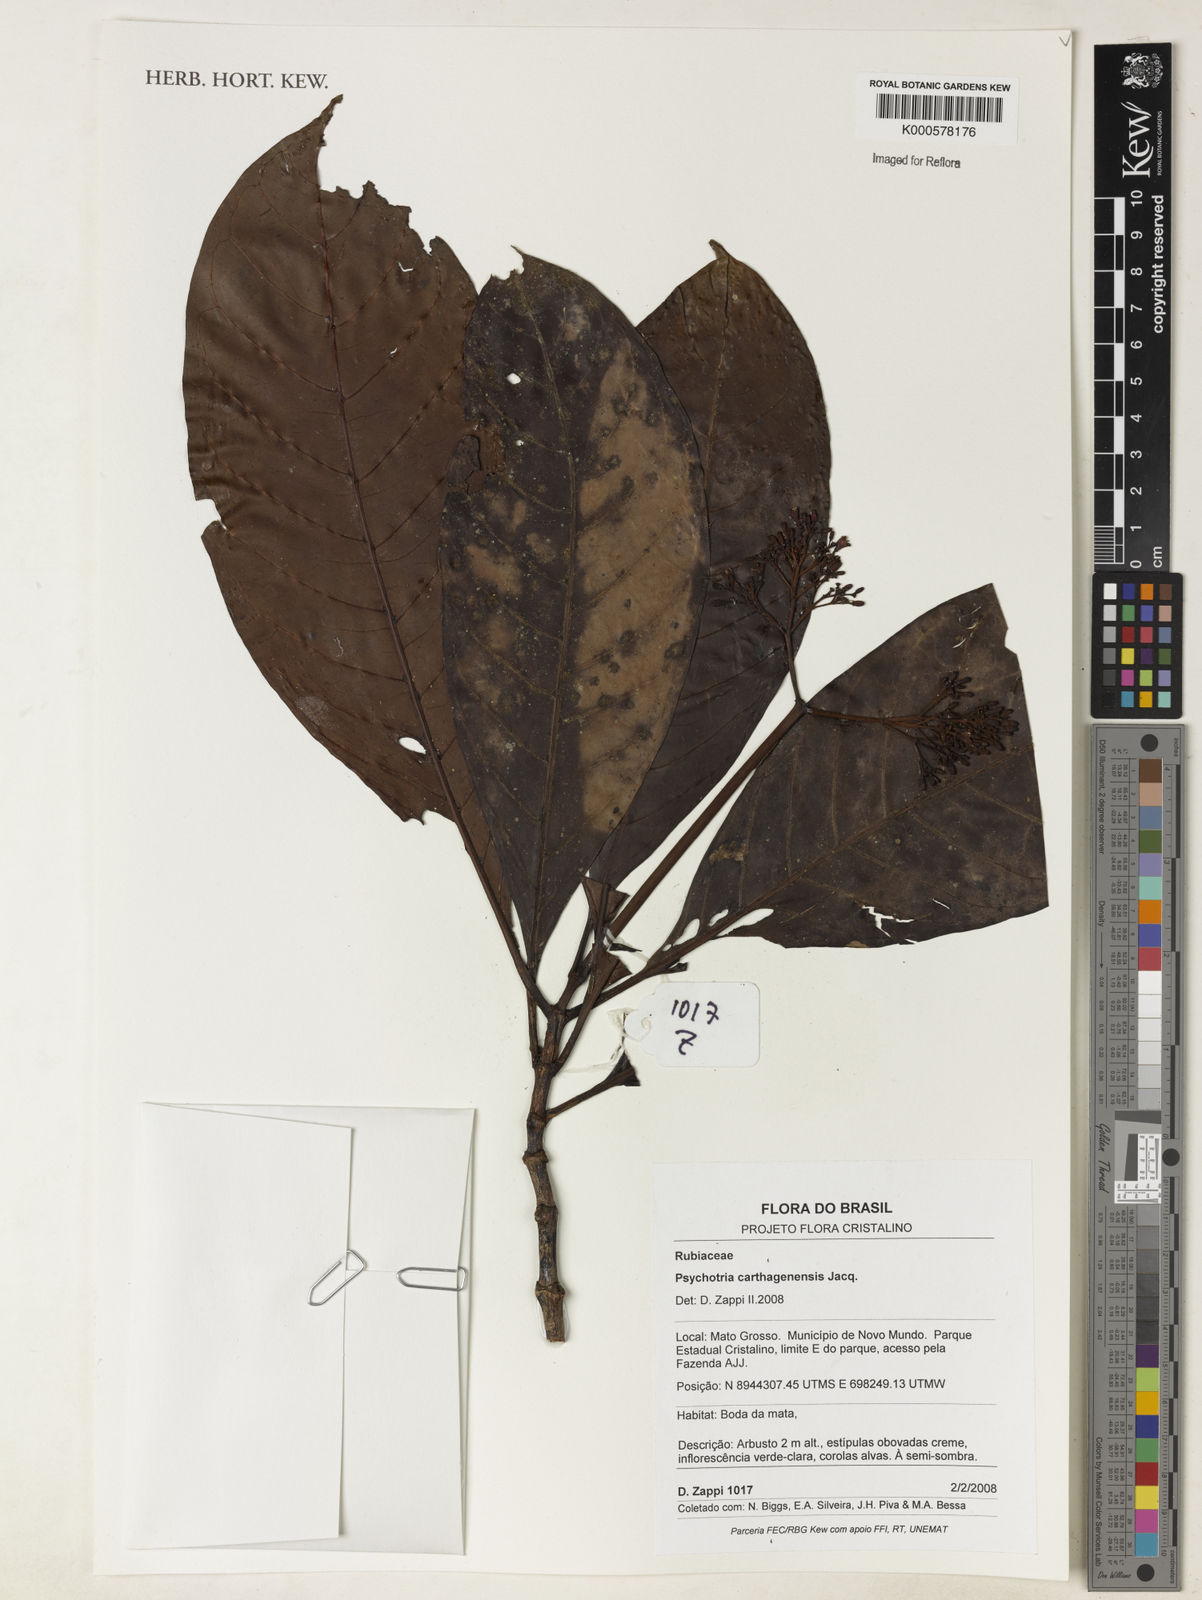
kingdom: Plantae
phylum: Tracheophyta
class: Magnoliopsida
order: Gentianales
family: Rubiaceae
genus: Psychotria
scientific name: Psychotria carthagenensis
